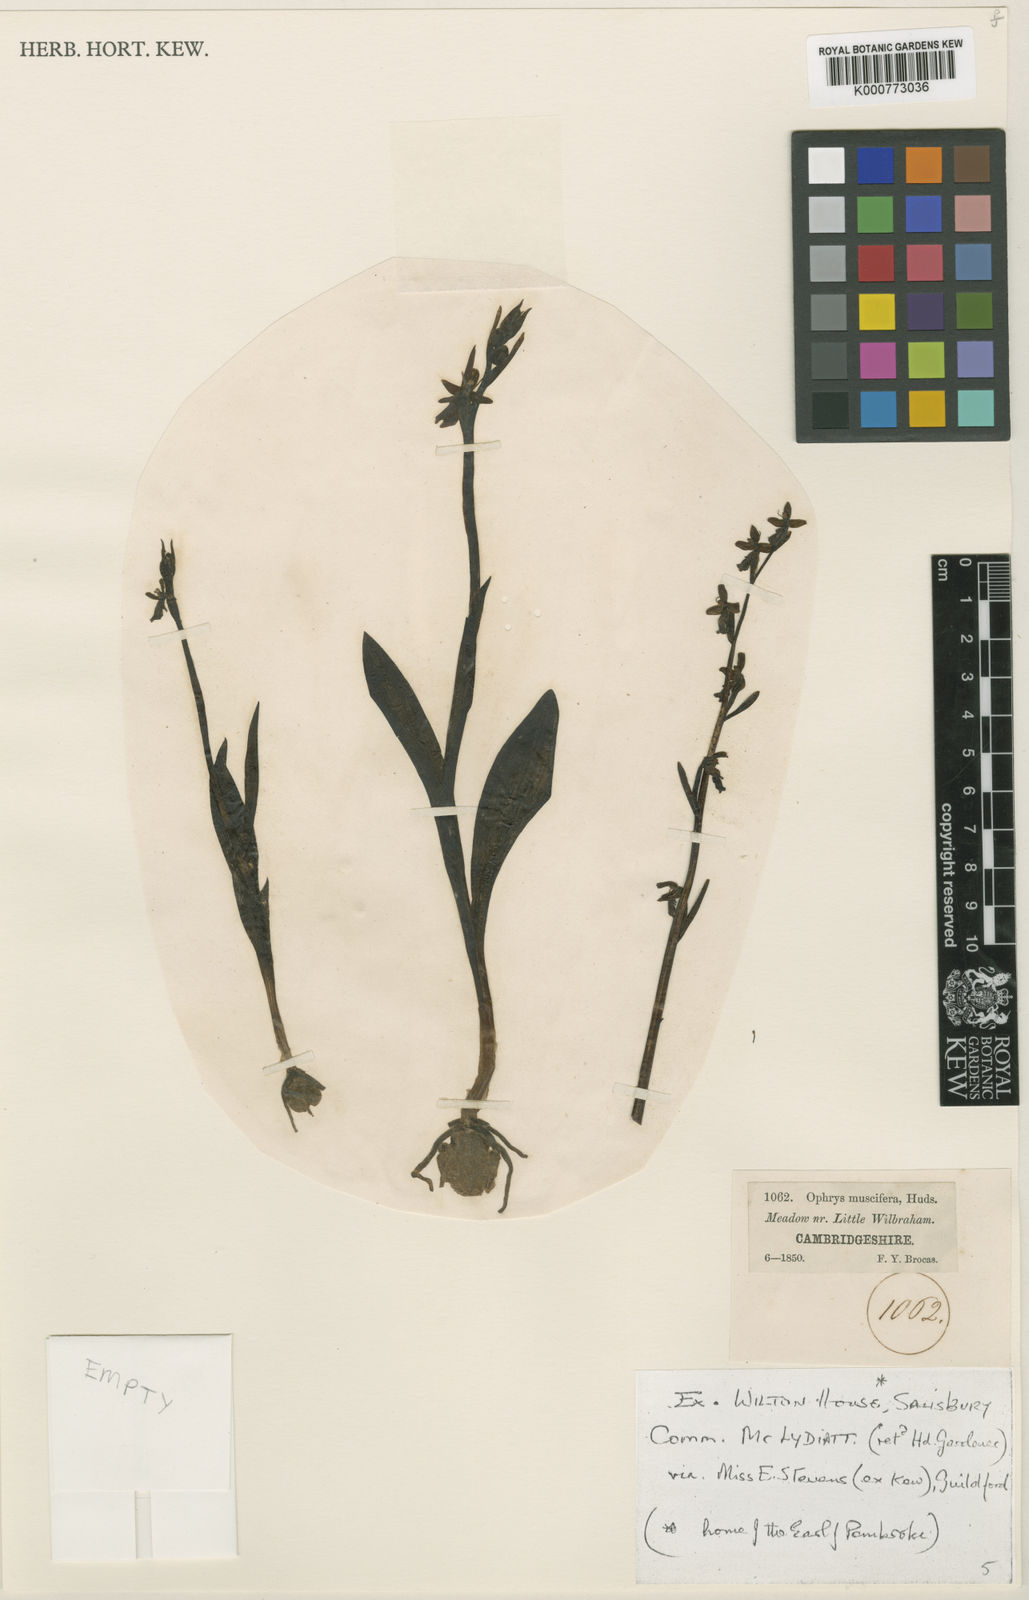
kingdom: Plantae
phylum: Tracheophyta
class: Liliopsida
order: Asparagales
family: Orchidaceae
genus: Ophrys
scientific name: Ophrys insectifera
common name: Fly orchid
